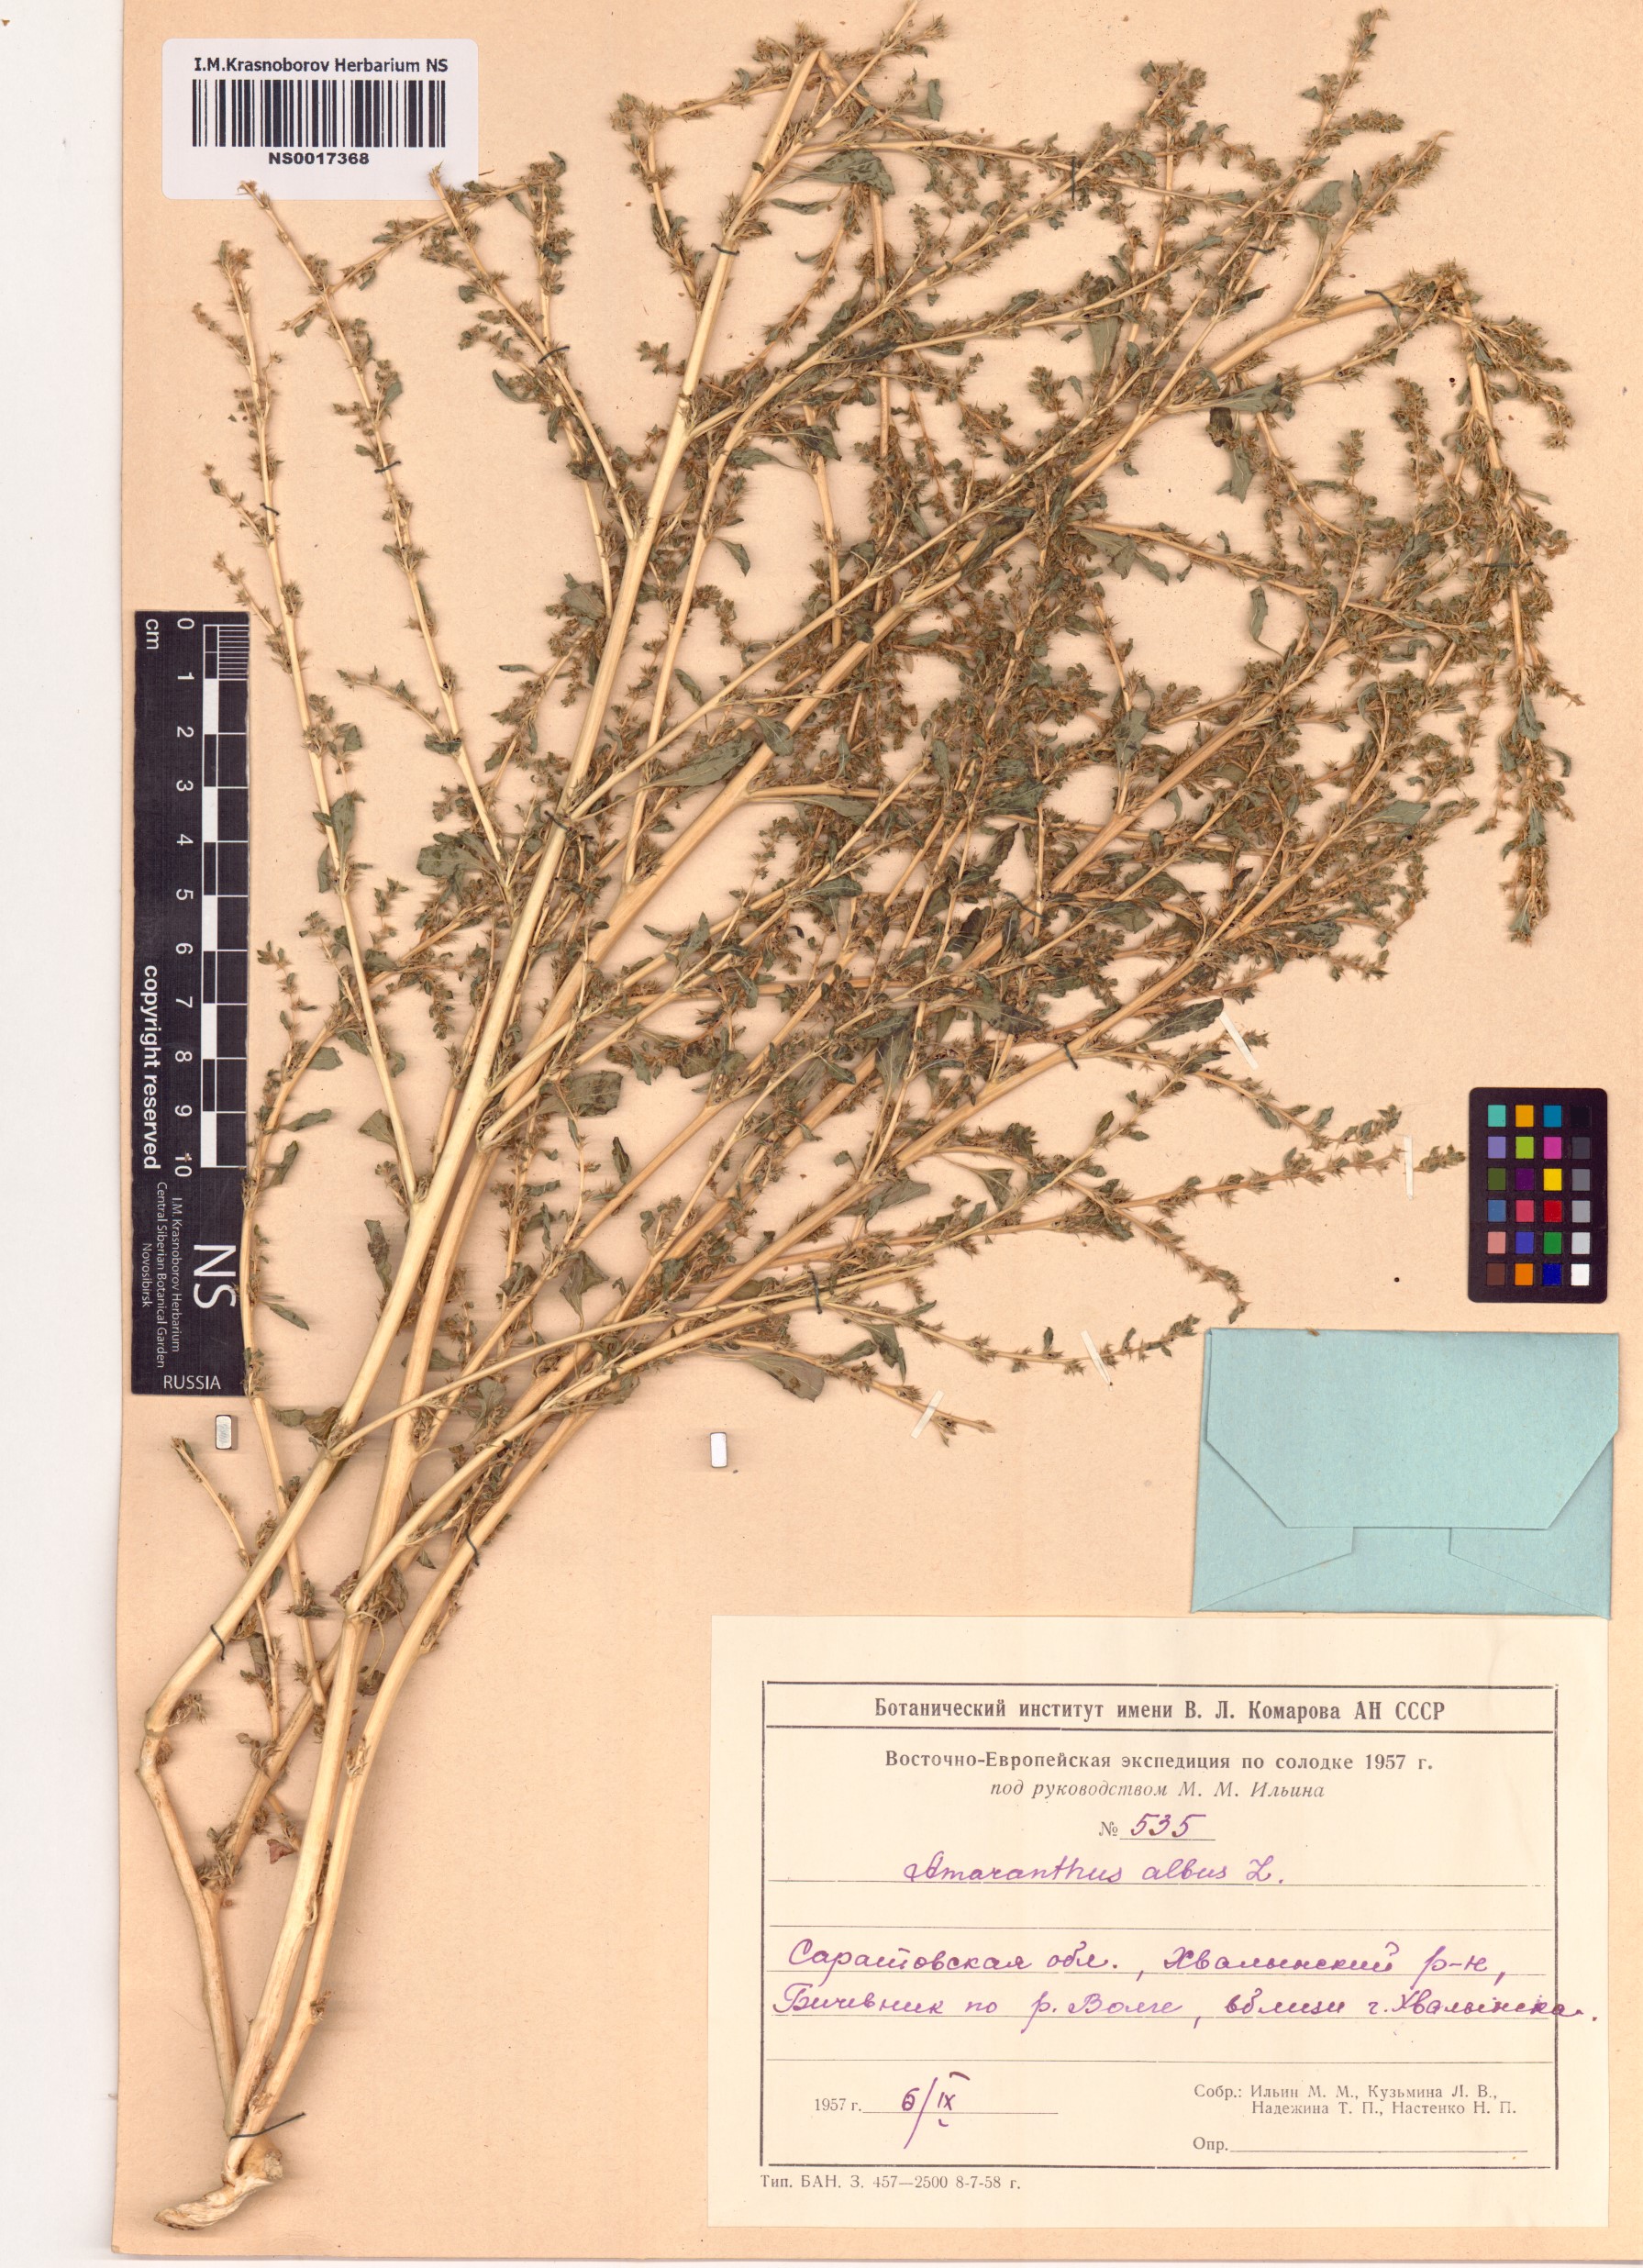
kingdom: Plantae
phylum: Tracheophyta
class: Magnoliopsida
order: Caryophyllales
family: Amaranthaceae
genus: Amaranthus
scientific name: Amaranthus albus
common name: White pigweed
